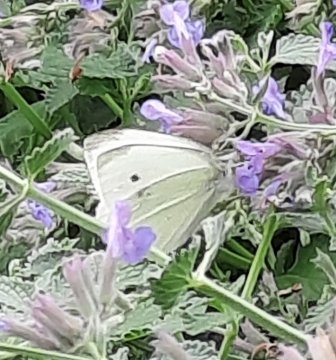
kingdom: Animalia
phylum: Arthropoda
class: Insecta
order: Lepidoptera
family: Pieridae
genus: Pieris
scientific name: Pieris rapae
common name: Cabbage White
